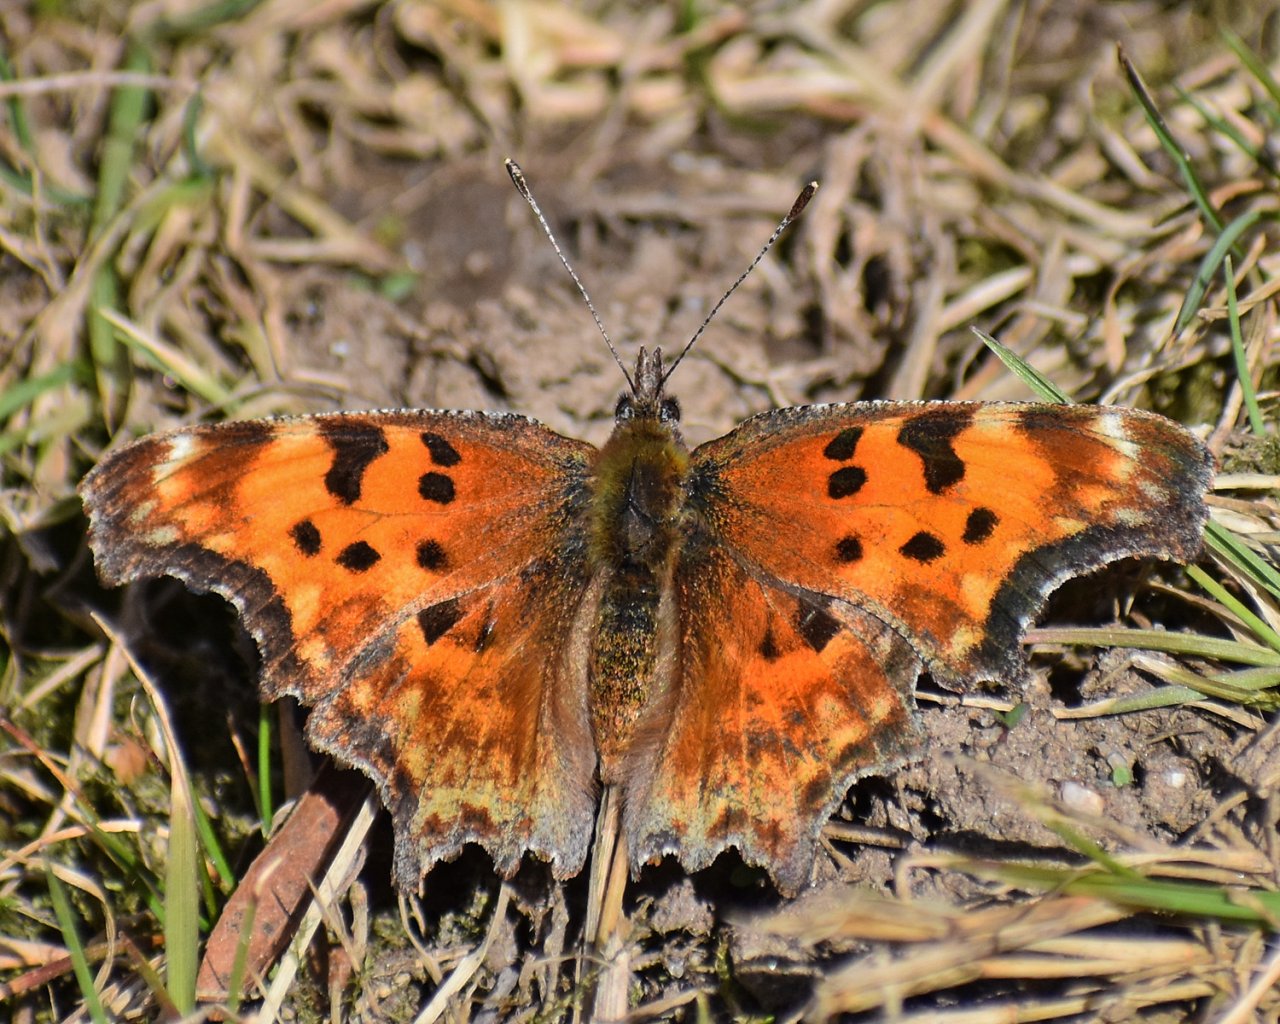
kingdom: Animalia
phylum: Arthropoda
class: Insecta
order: Lepidoptera
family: Nymphalidae
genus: Polygonia
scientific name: Polygonia gracilis
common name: Hoary Comma
